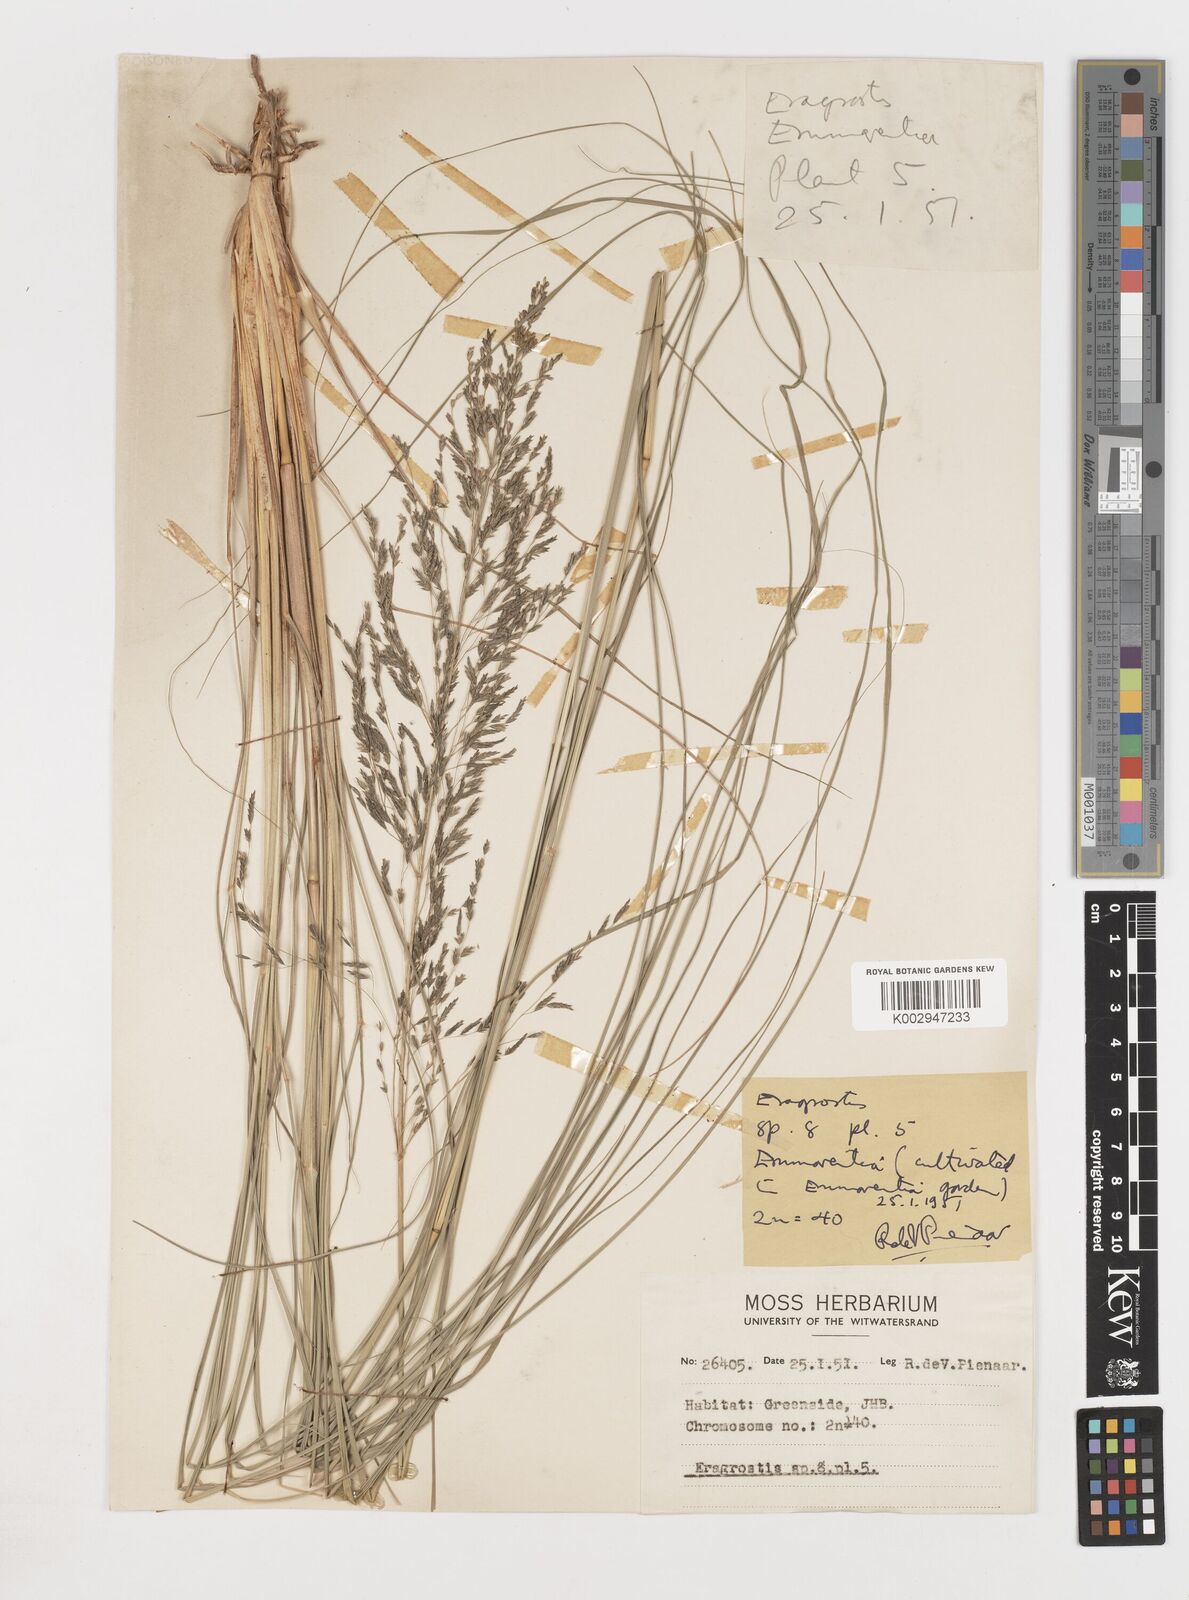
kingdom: Plantae
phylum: Tracheophyta
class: Liliopsida
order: Poales
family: Poaceae
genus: Eragrostis
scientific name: Eragrostis
